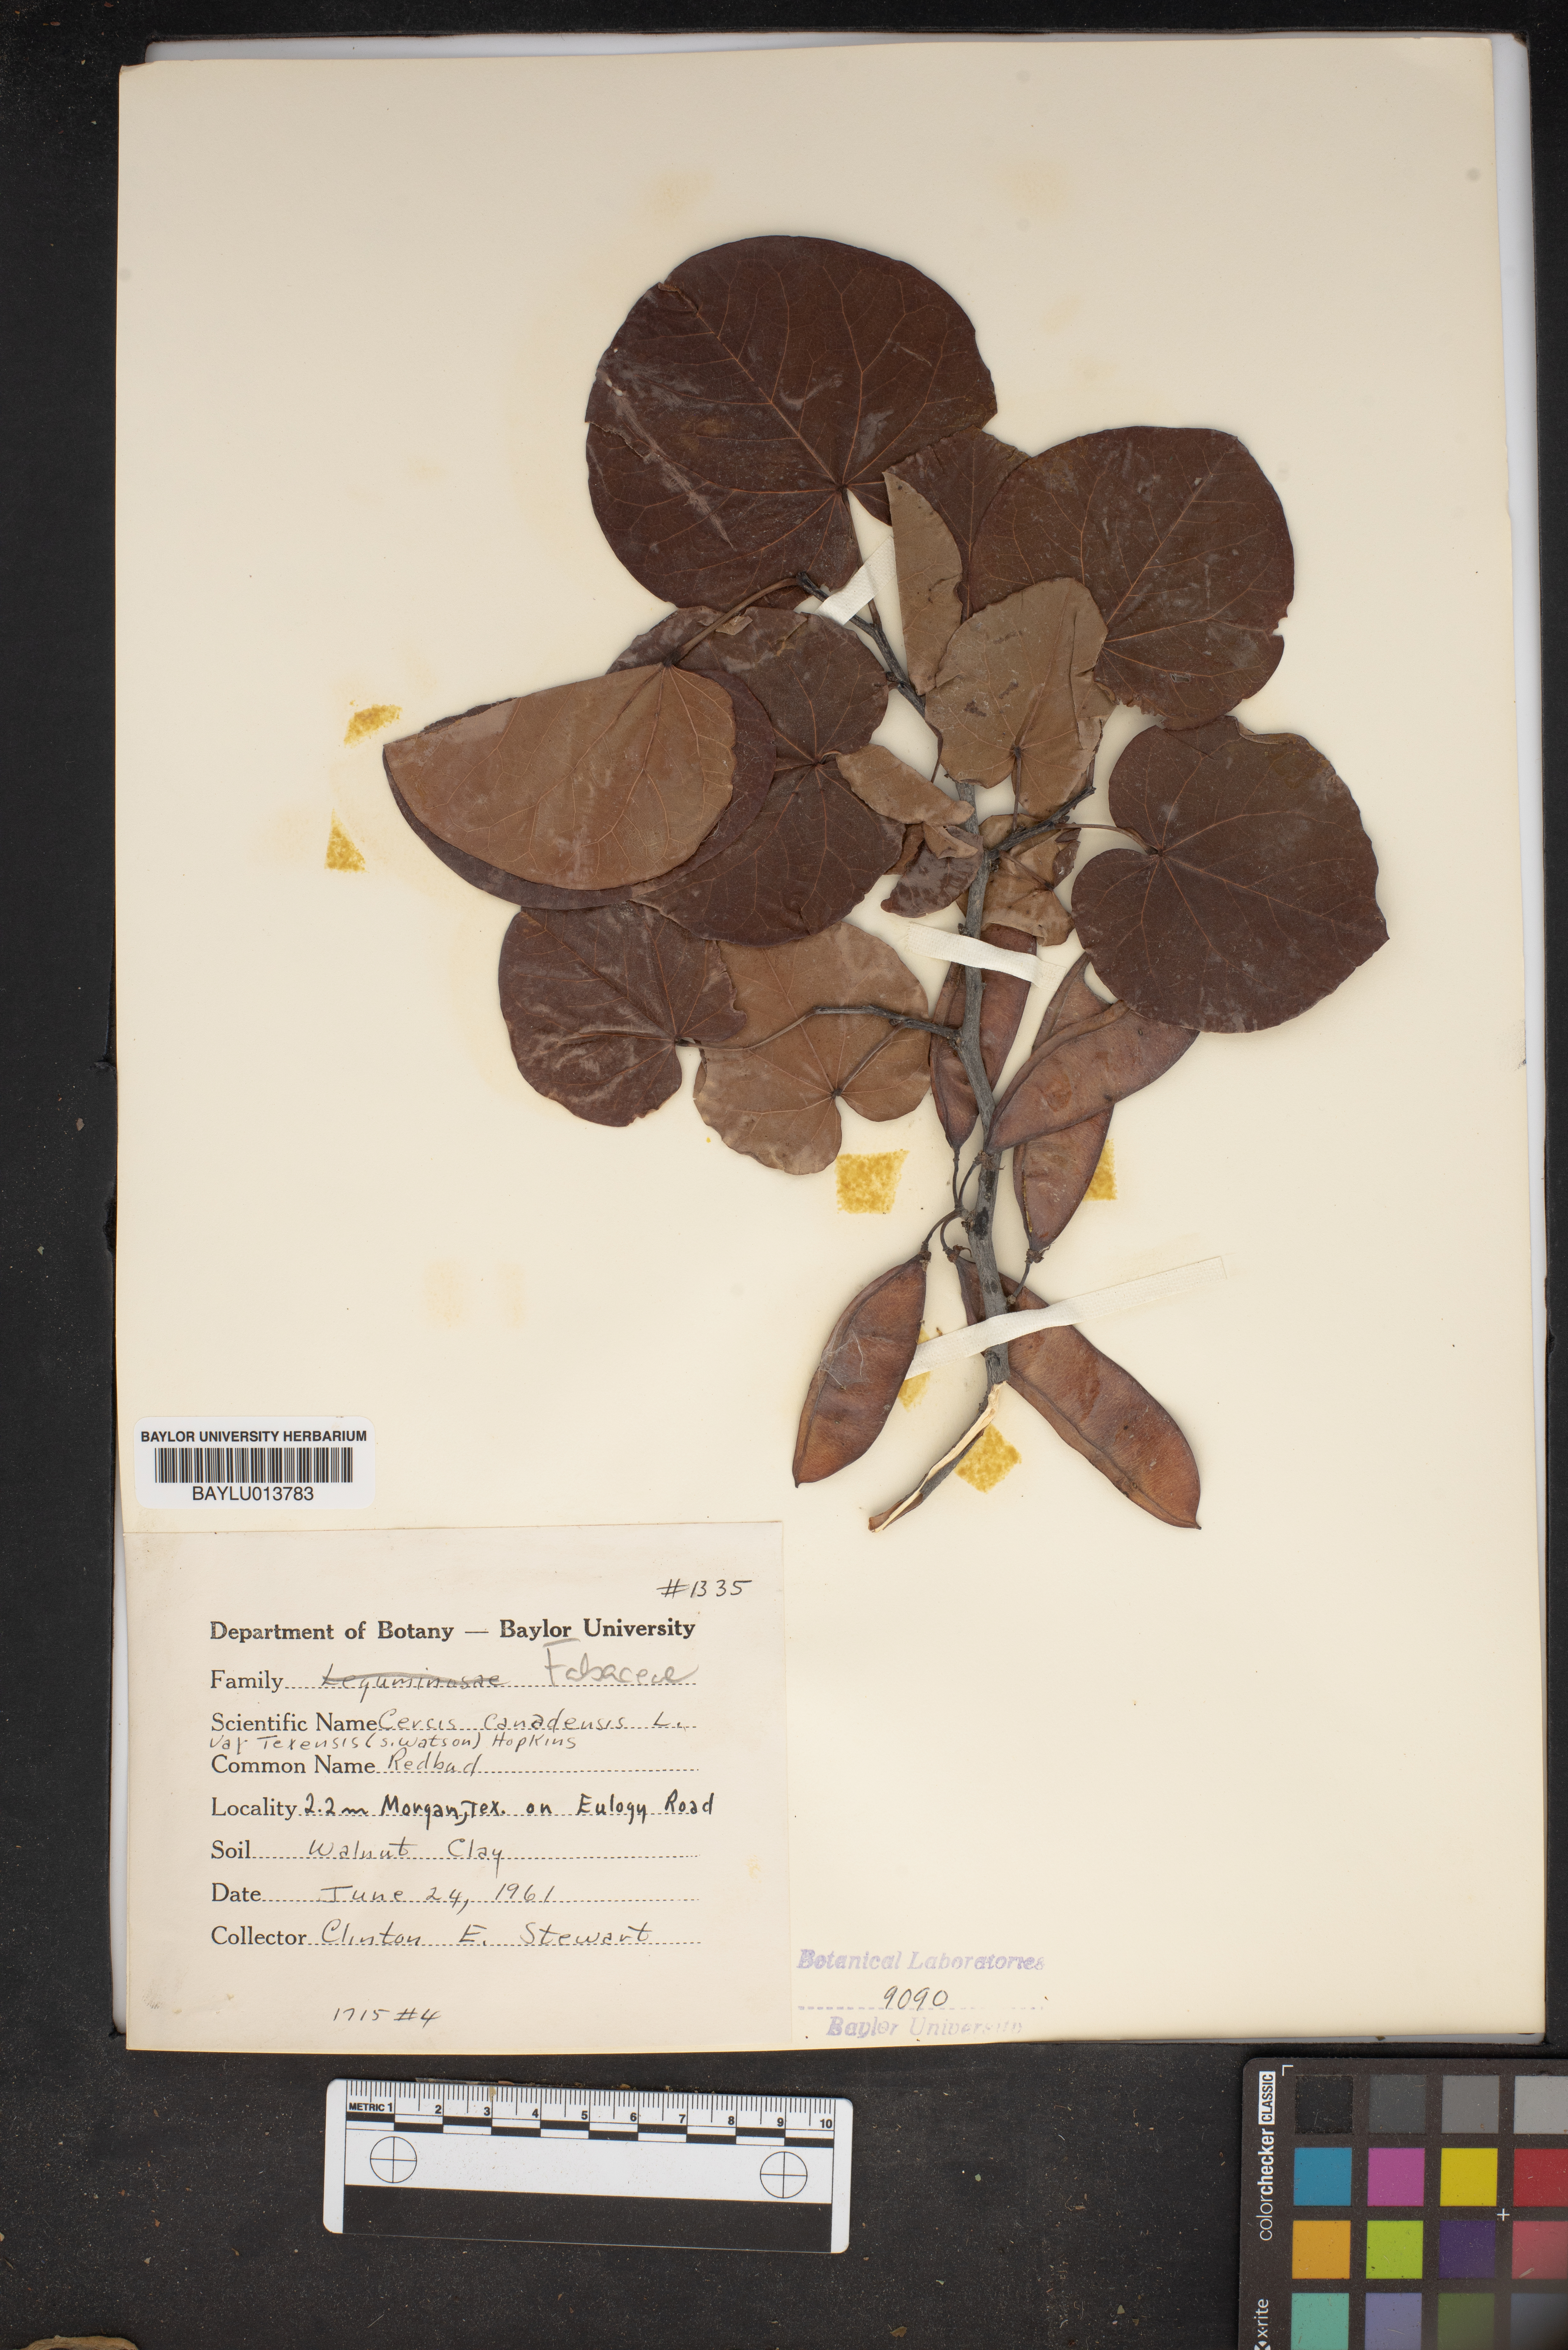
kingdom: Plantae
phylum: Tracheophyta
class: Magnoliopsida
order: Fabales
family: Fabaceae
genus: Cercis
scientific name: Cercis canadensis
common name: Eastern redbud
